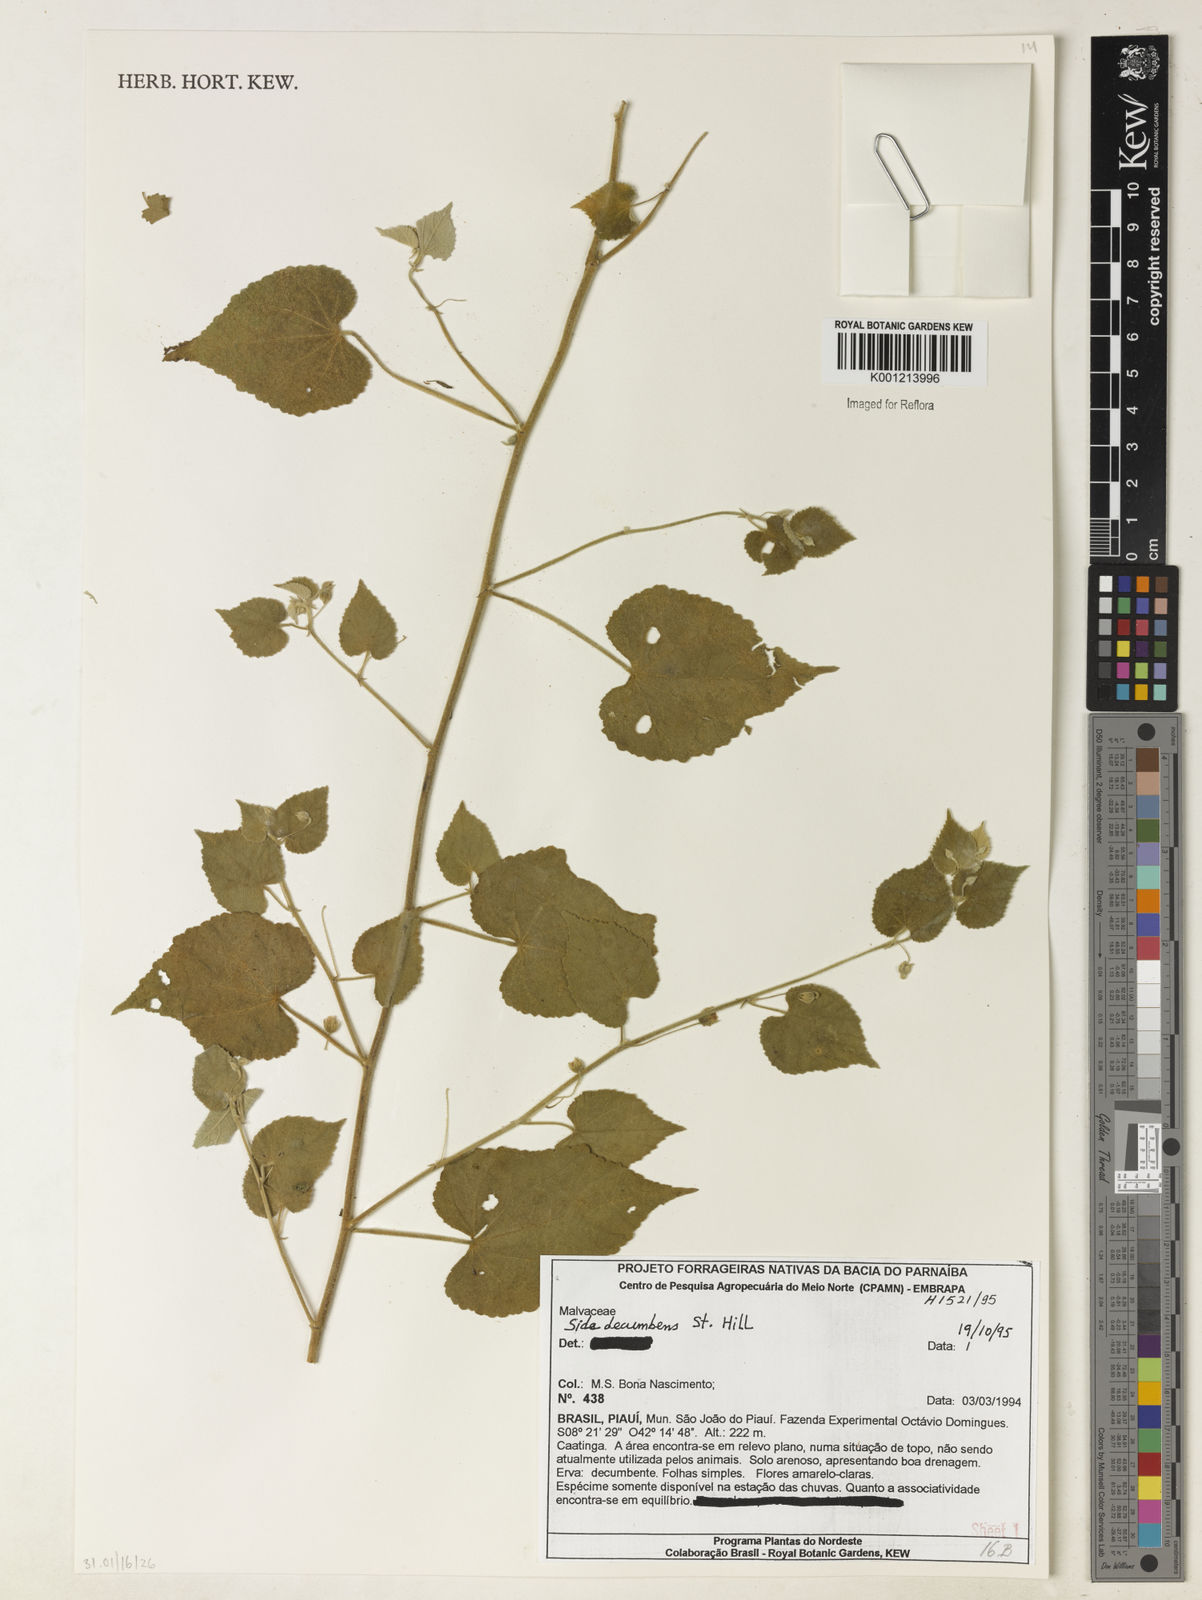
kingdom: Plantae
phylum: Tracheophyta
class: Magnoliopsida
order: Malvales
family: Malvaceae
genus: Sida
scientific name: Sida jussieana
